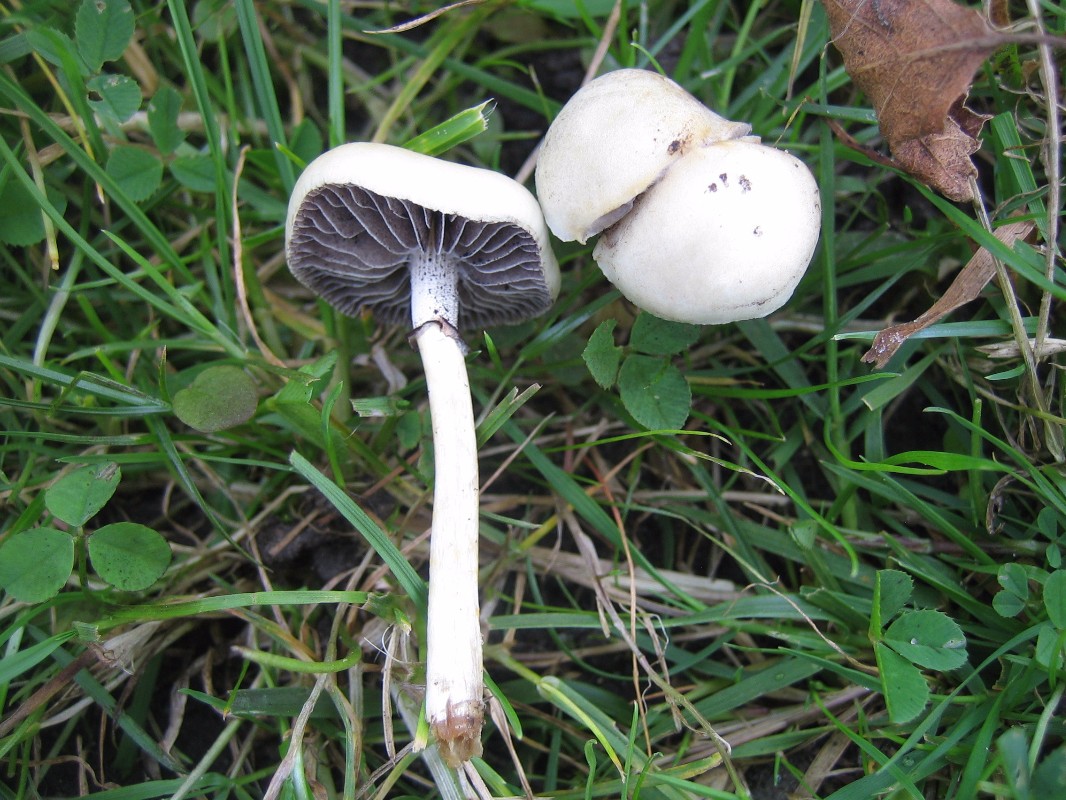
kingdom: Fungi
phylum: Basidiomycota
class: Agaricomycetes
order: Agaricales
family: Strophariaceae
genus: Protostropharia
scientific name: Protostropharia
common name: bredblad
